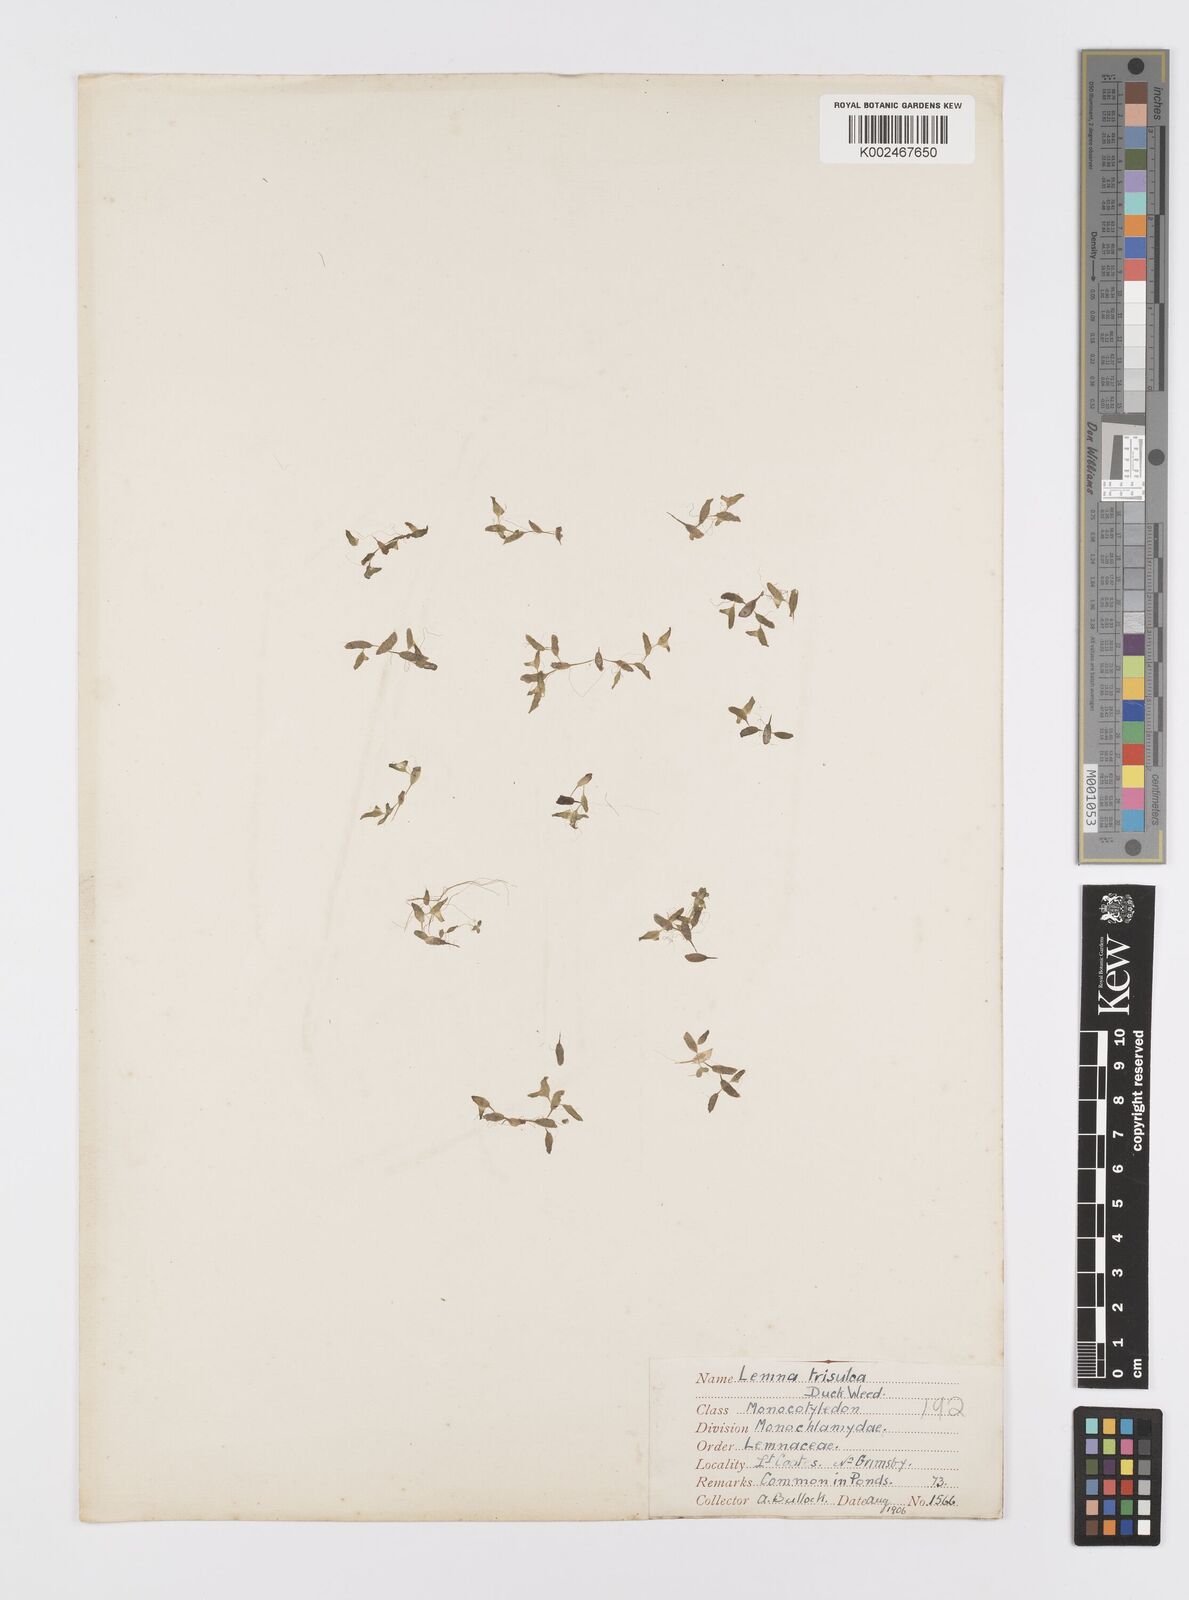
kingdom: Plantae
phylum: Tracheophyta
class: Liliopsida
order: Alismatales
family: Araceae
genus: Lemna
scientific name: Lemna trisulca
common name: Ivy-leaved duckweed
